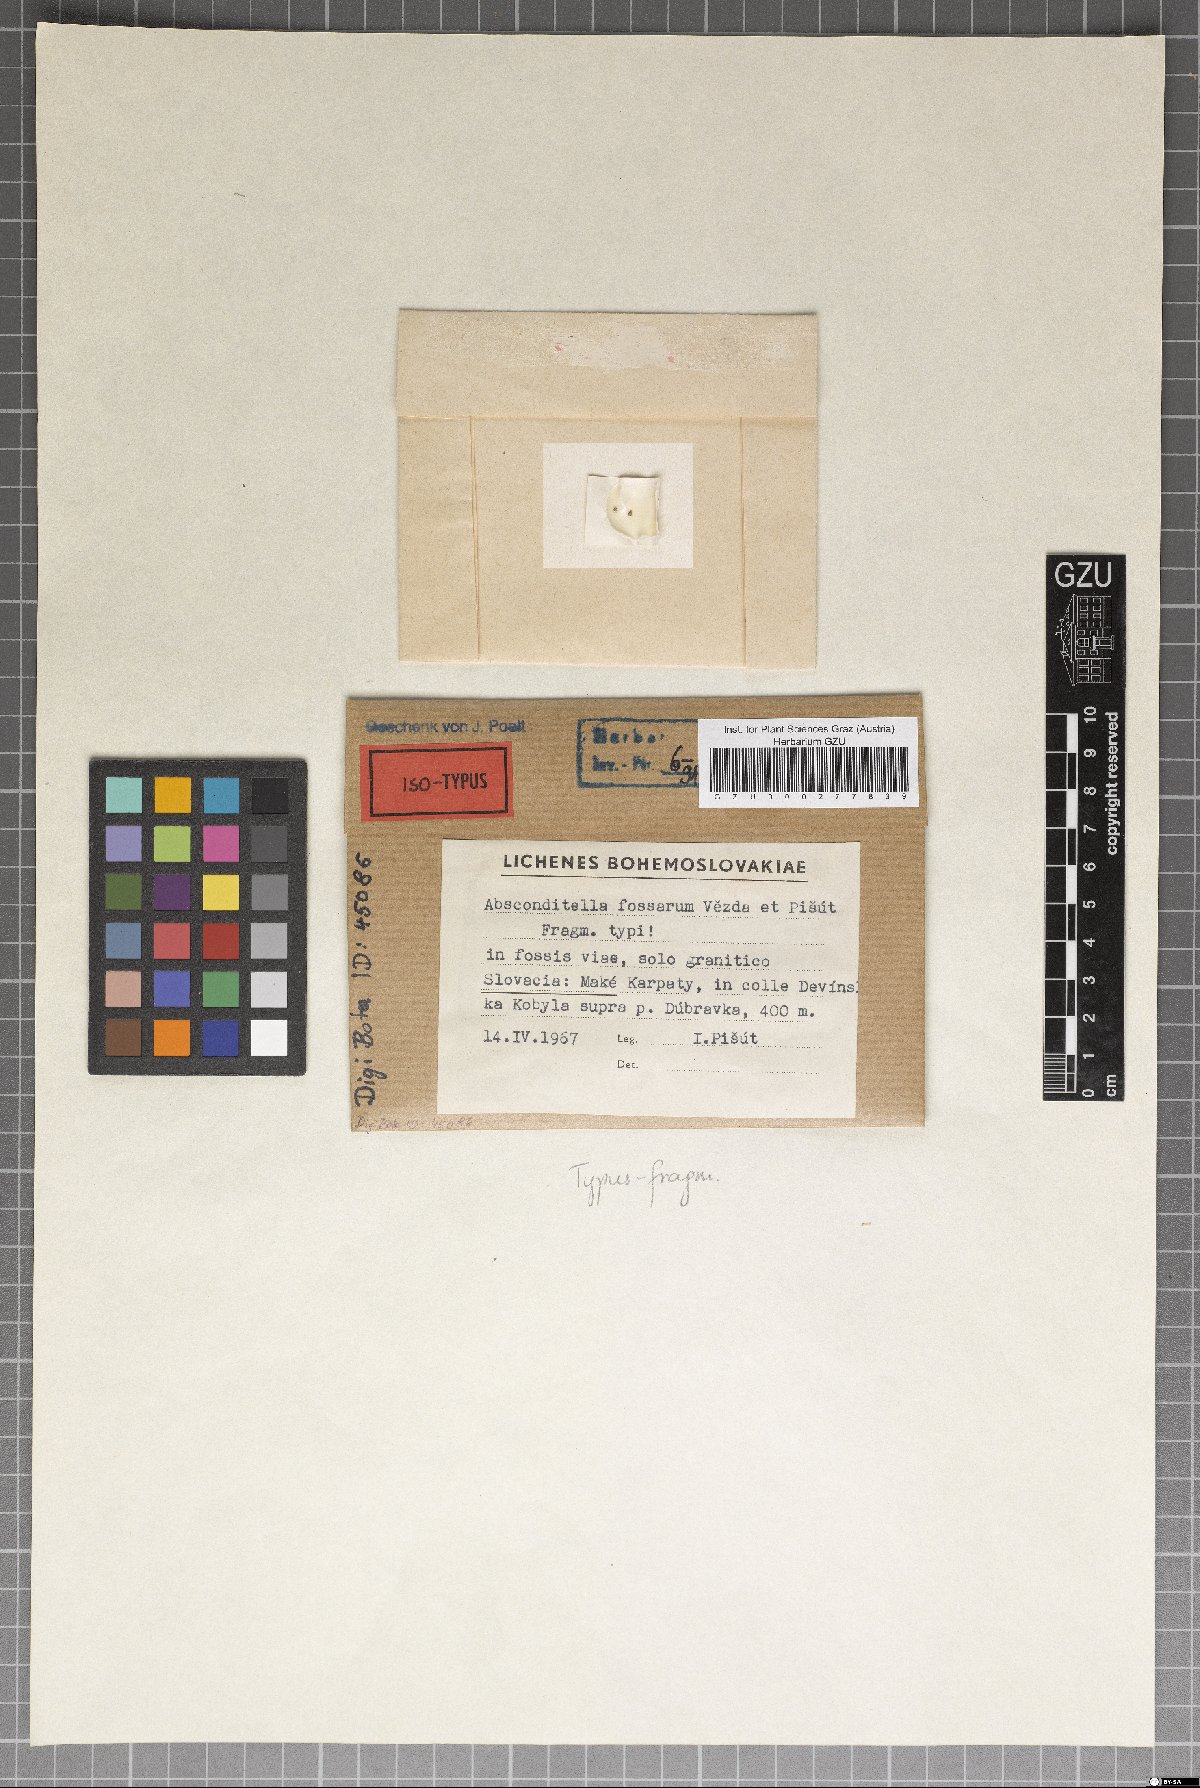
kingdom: Fungi
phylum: Ascomycota
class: Lecanoromycetes
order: Ostropales
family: Stictidaceae
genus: Absconditella
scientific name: Absconditella fossarum
